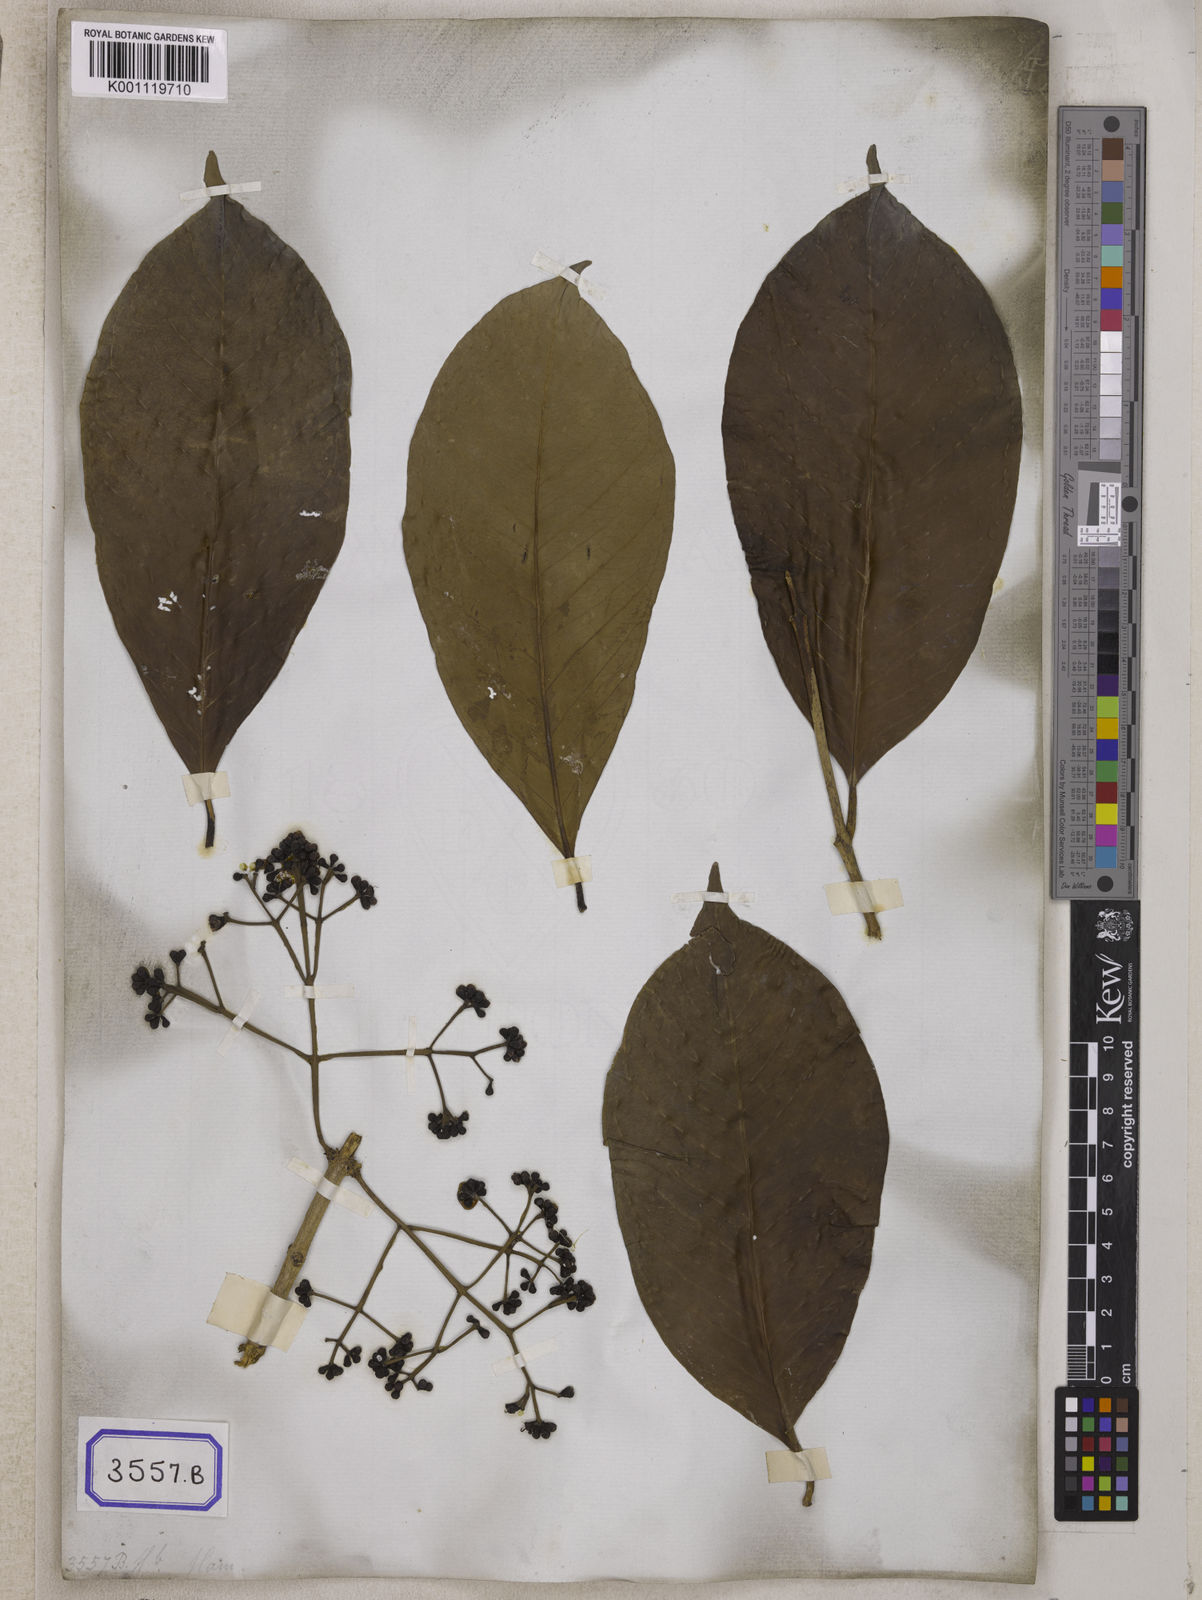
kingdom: Plantae
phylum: Tracheophyta
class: Magnoliopsida
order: Myrtales
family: Myrtaceae
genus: Syzygium
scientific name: Syzygium
